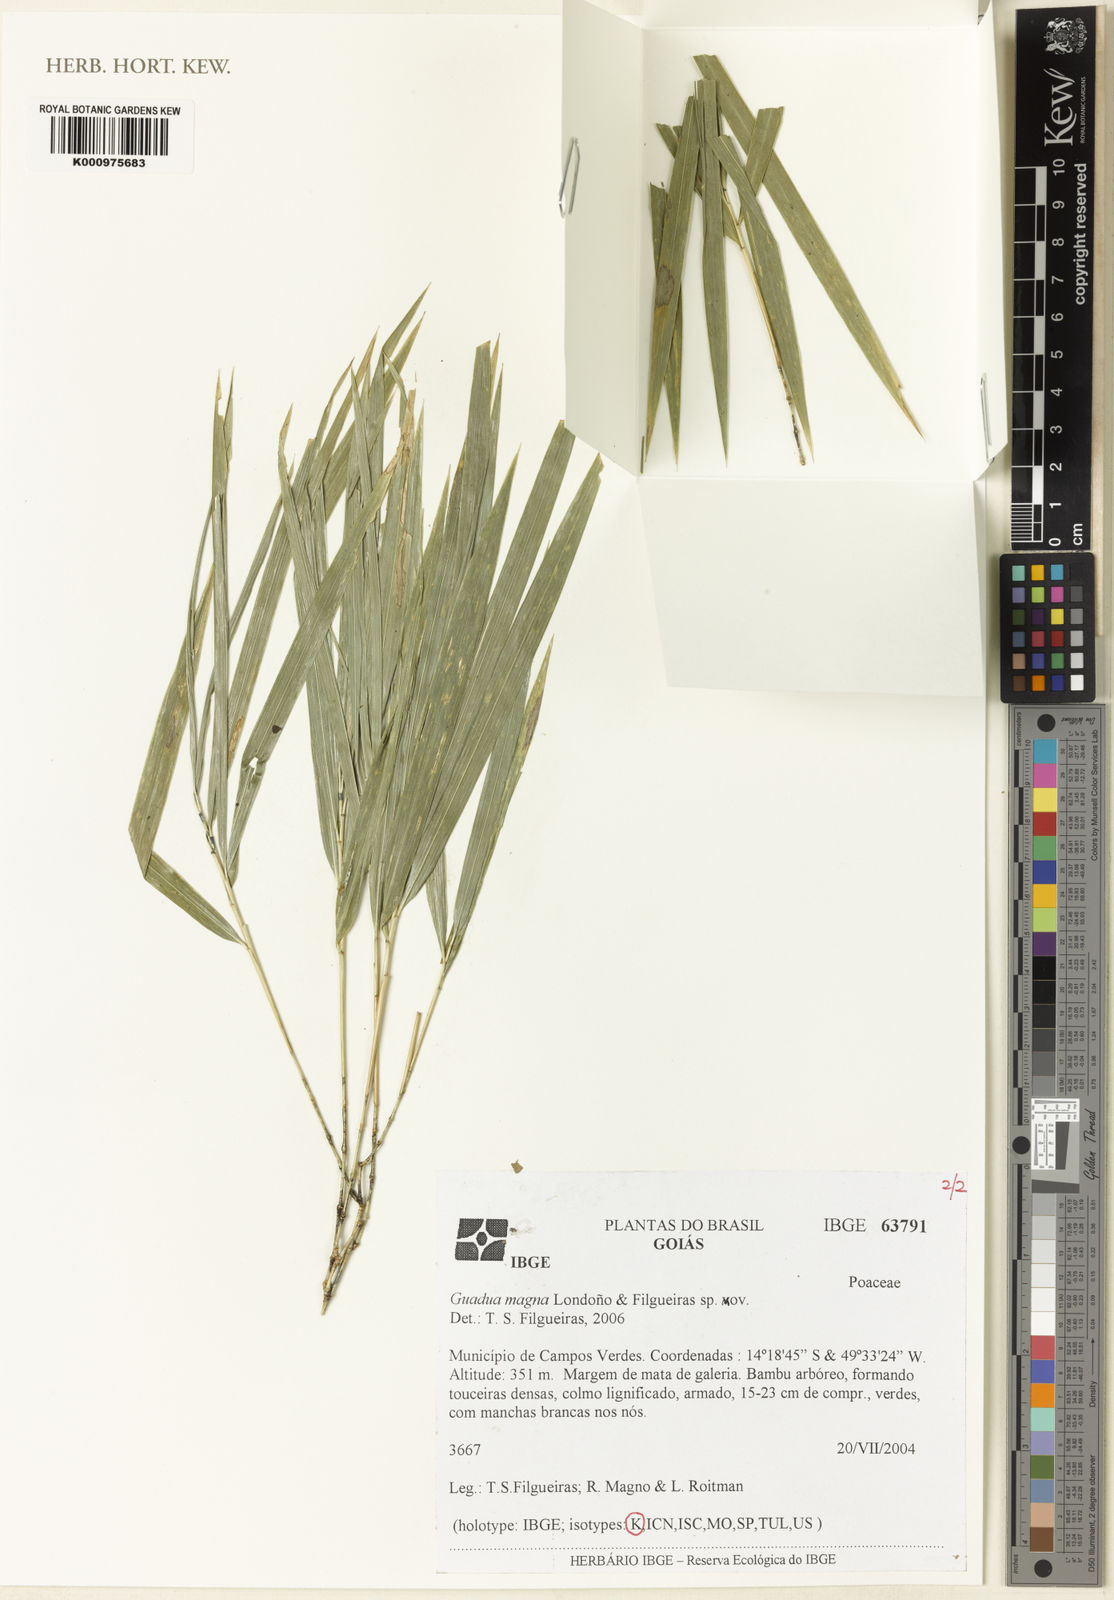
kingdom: Plantae
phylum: Tracheophyta
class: Liliopsida
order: Poales
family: Poaceae
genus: Guadua
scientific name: Guadua magna
